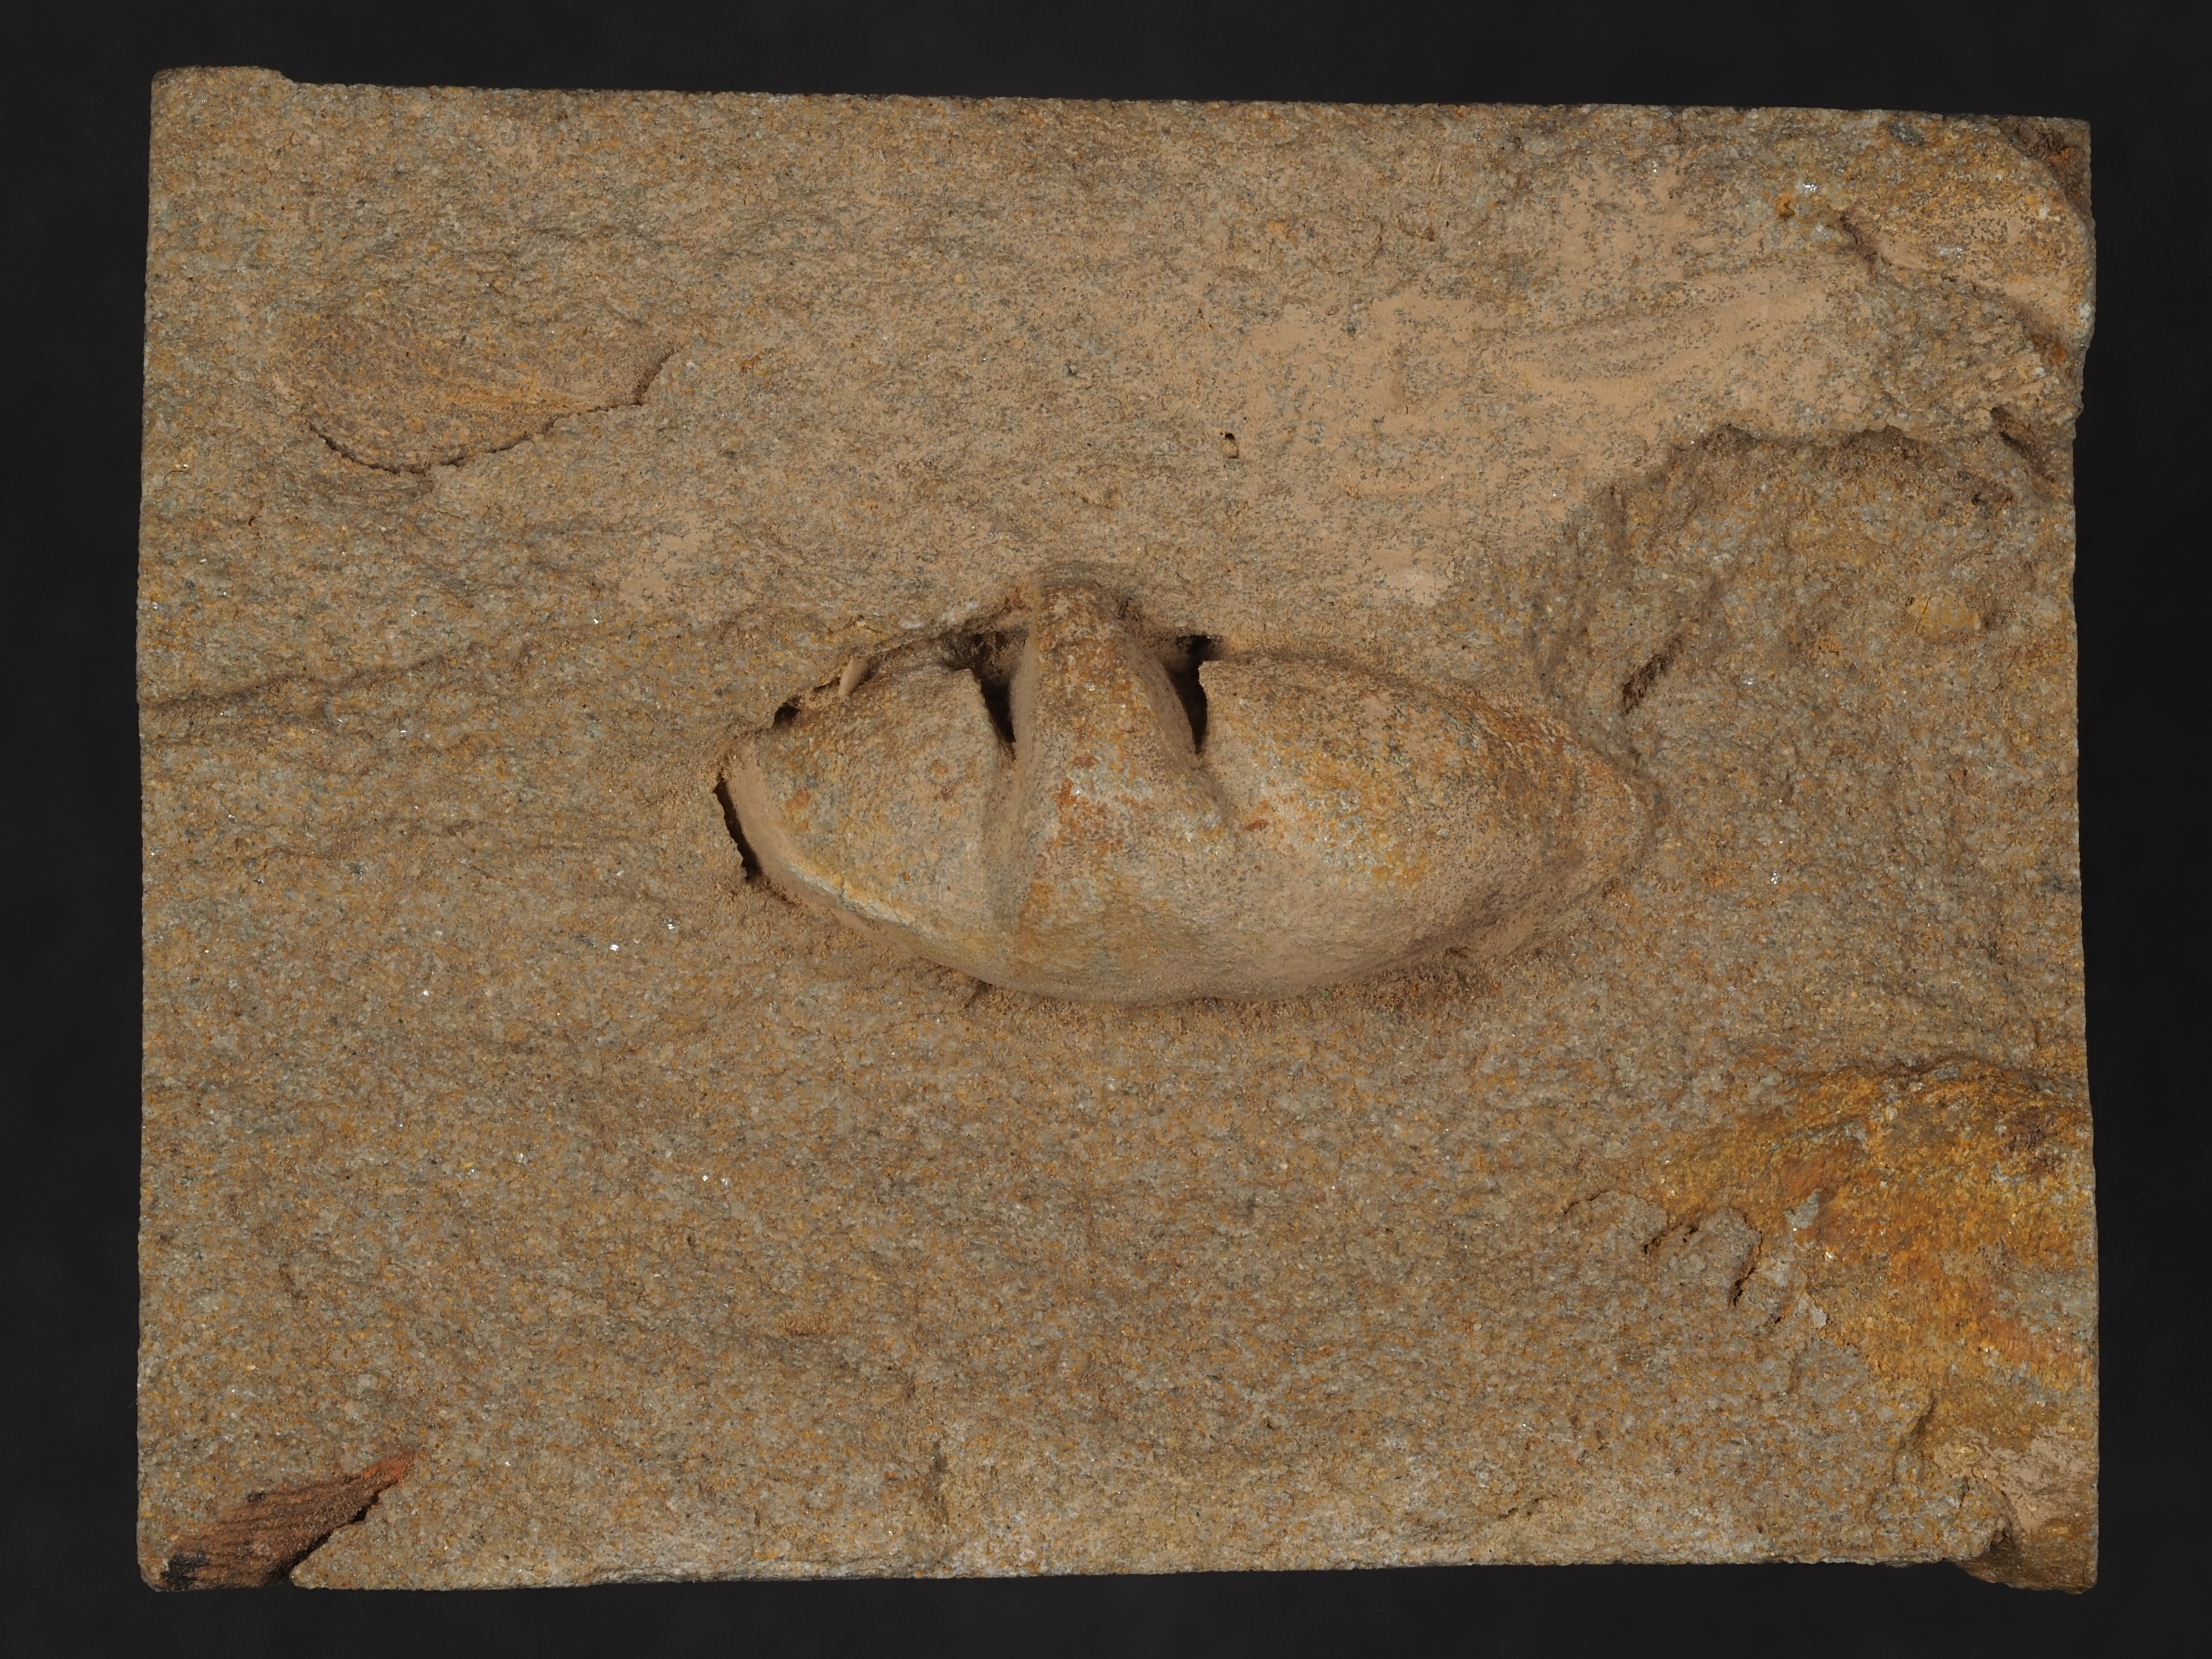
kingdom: Animalia
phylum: Brachiopoda
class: Rhynchonellata
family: Athyrididae
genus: Athyris
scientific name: Athyris
